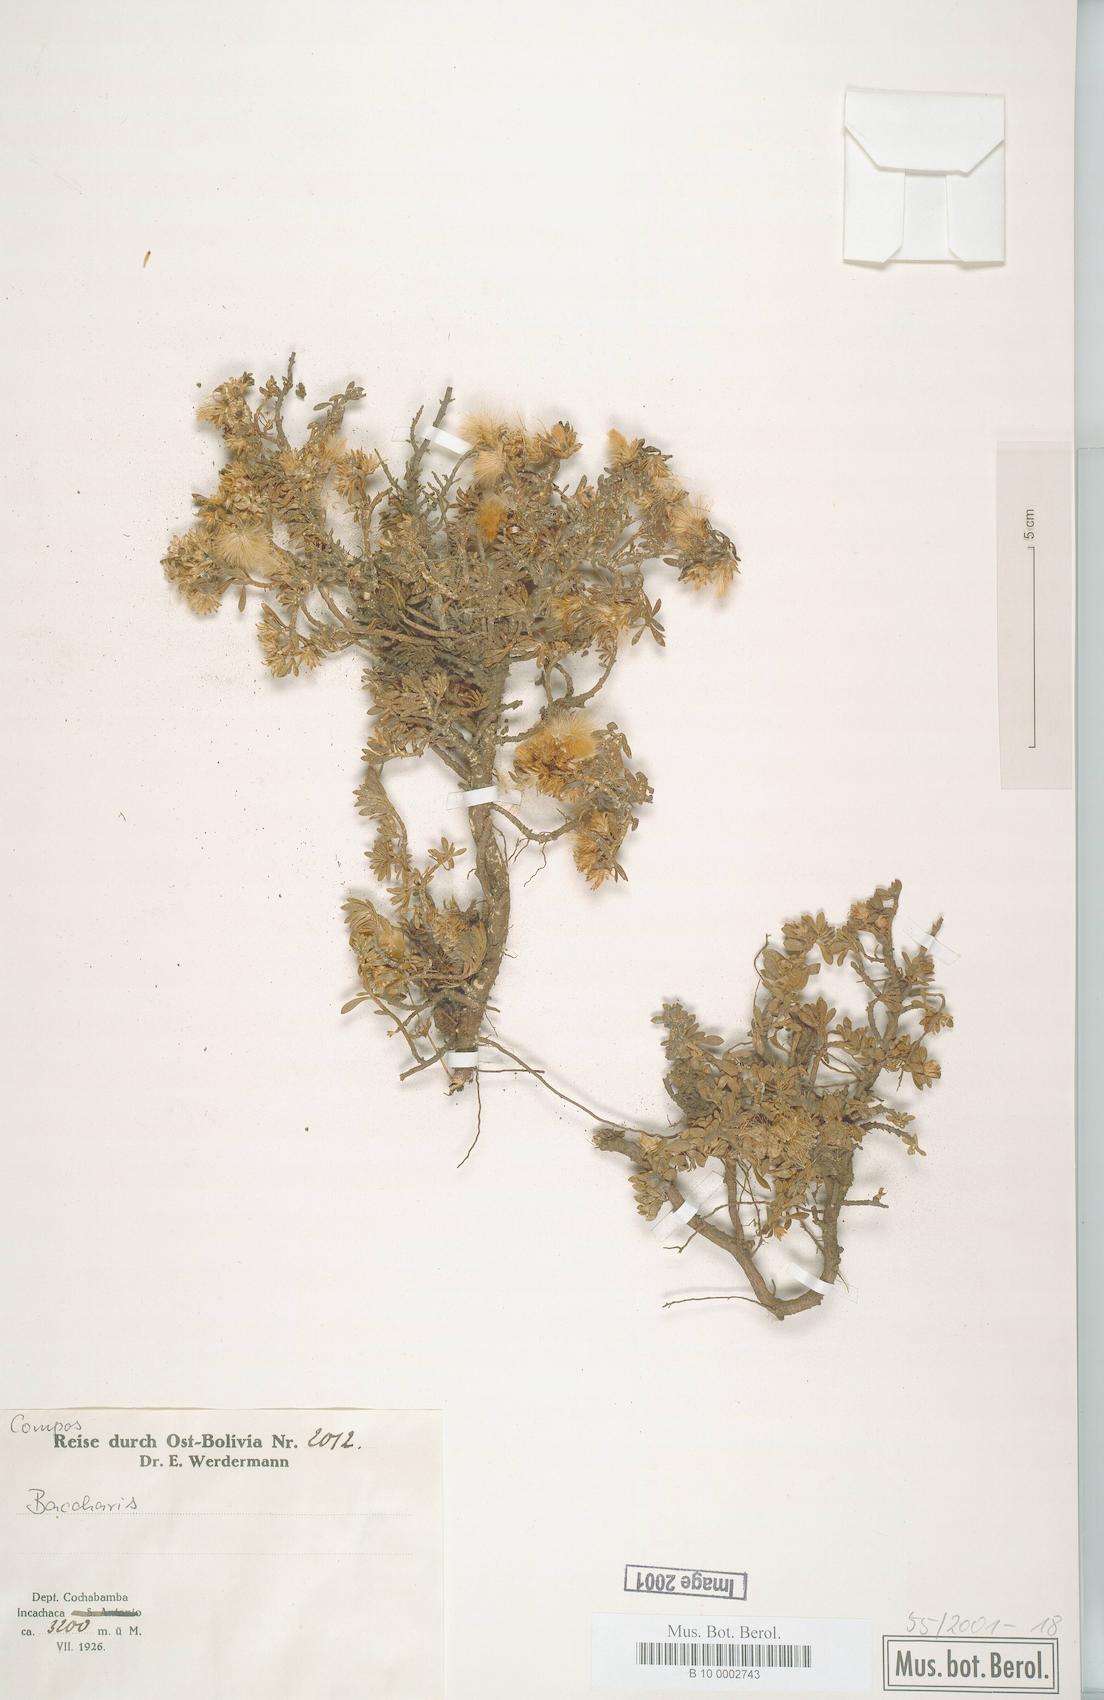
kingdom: Plantae
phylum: Tracheophyta
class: Magnoliopsida
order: Asterales
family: Asteraceae
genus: Baccharis
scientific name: Baccharis
